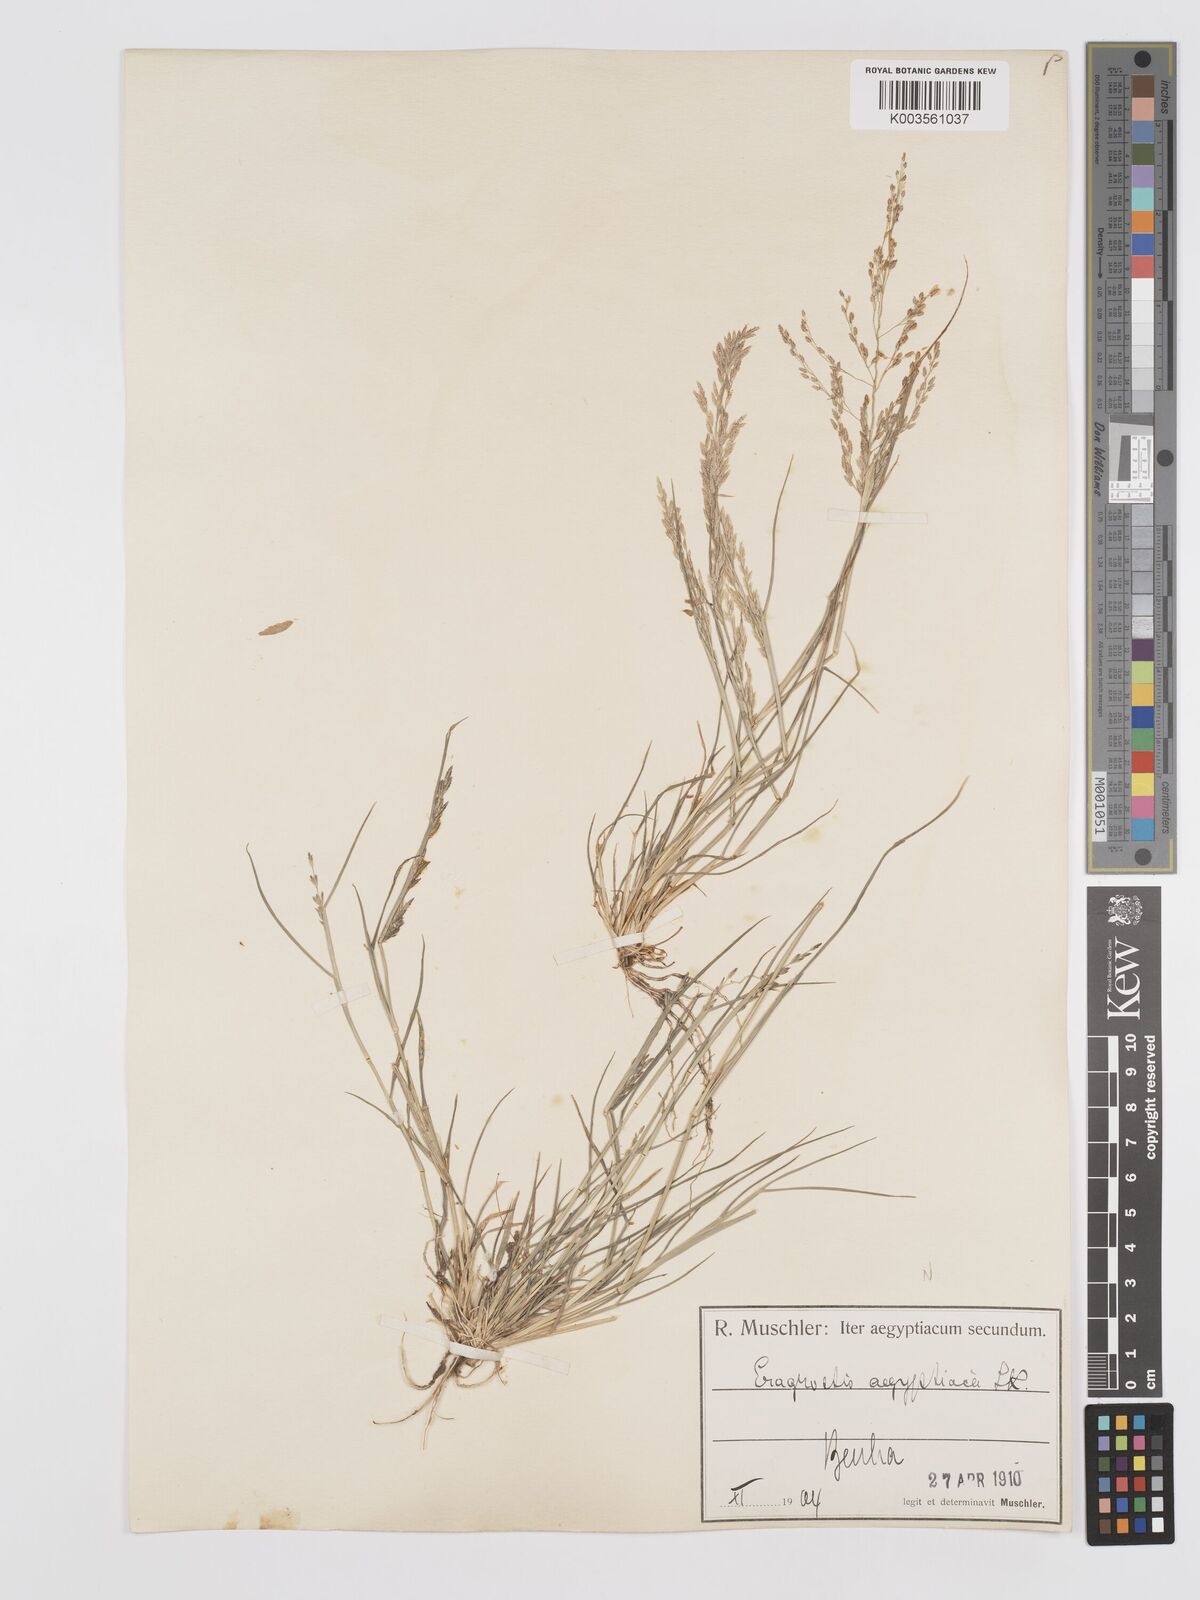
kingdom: Plantae
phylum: Tracheophyta
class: Liliopsida
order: Poales
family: Poaceae
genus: Eragrostis
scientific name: Eragrostis aegyptiaca
